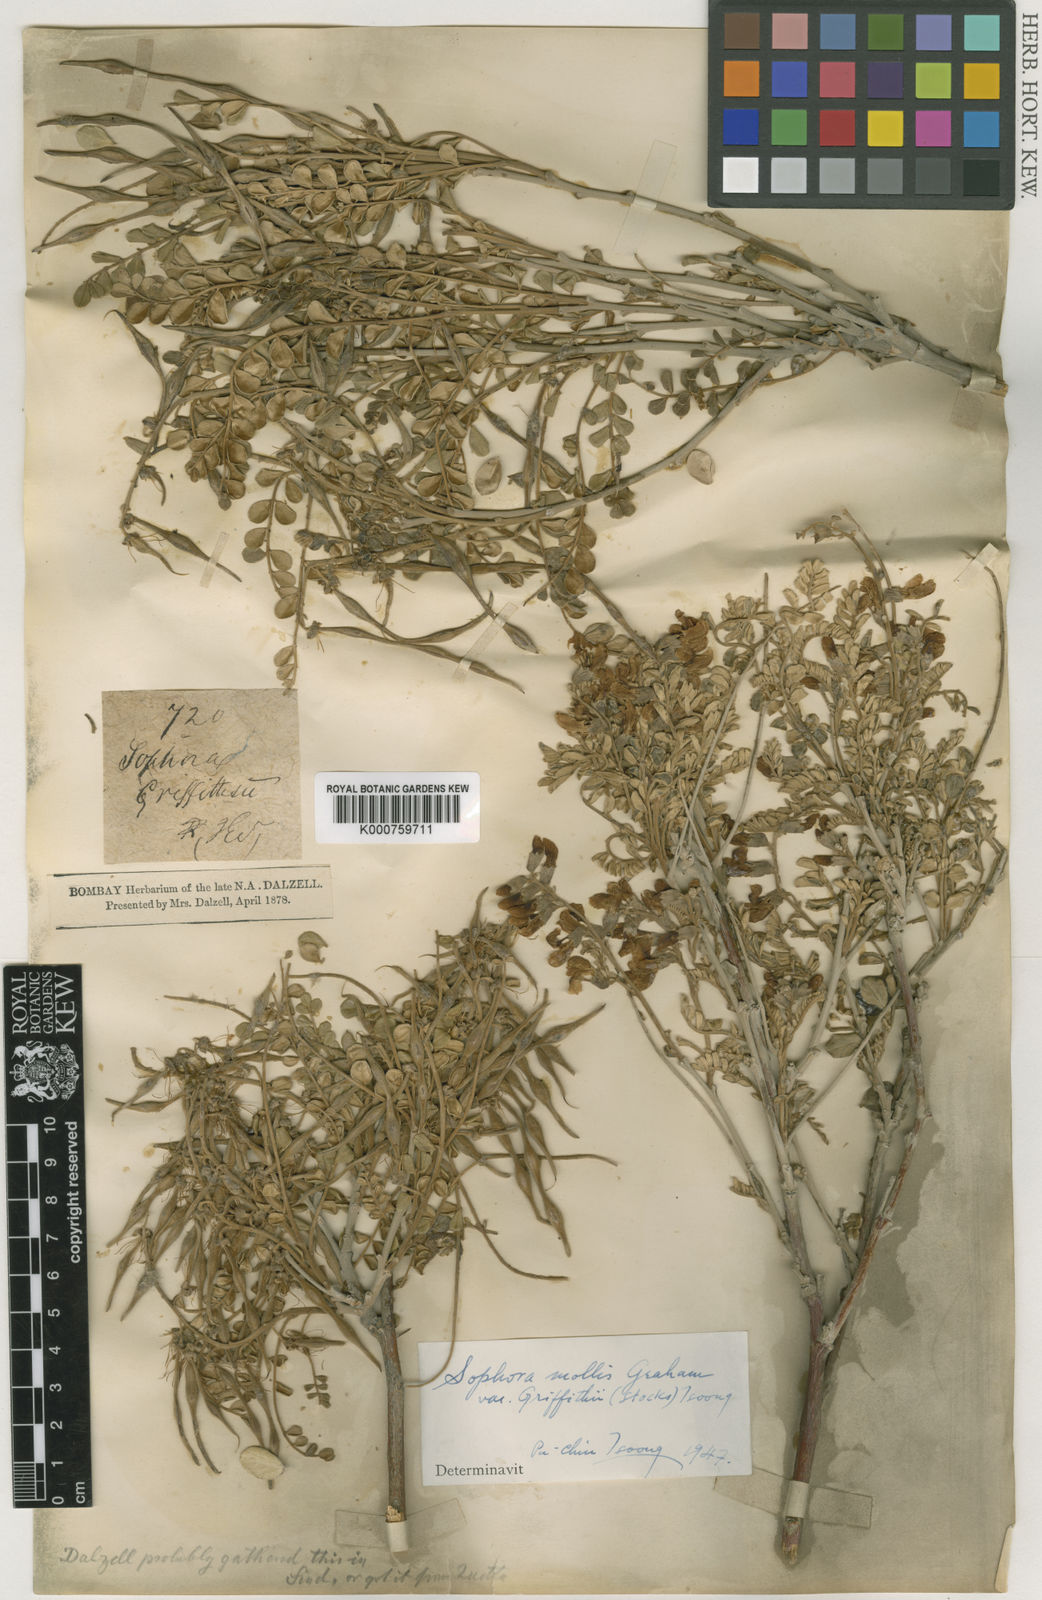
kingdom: Plantae
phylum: Tracheophyta
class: Magnoliopsida
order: Fabales
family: Fabaceae
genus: Sophora
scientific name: Sophora
